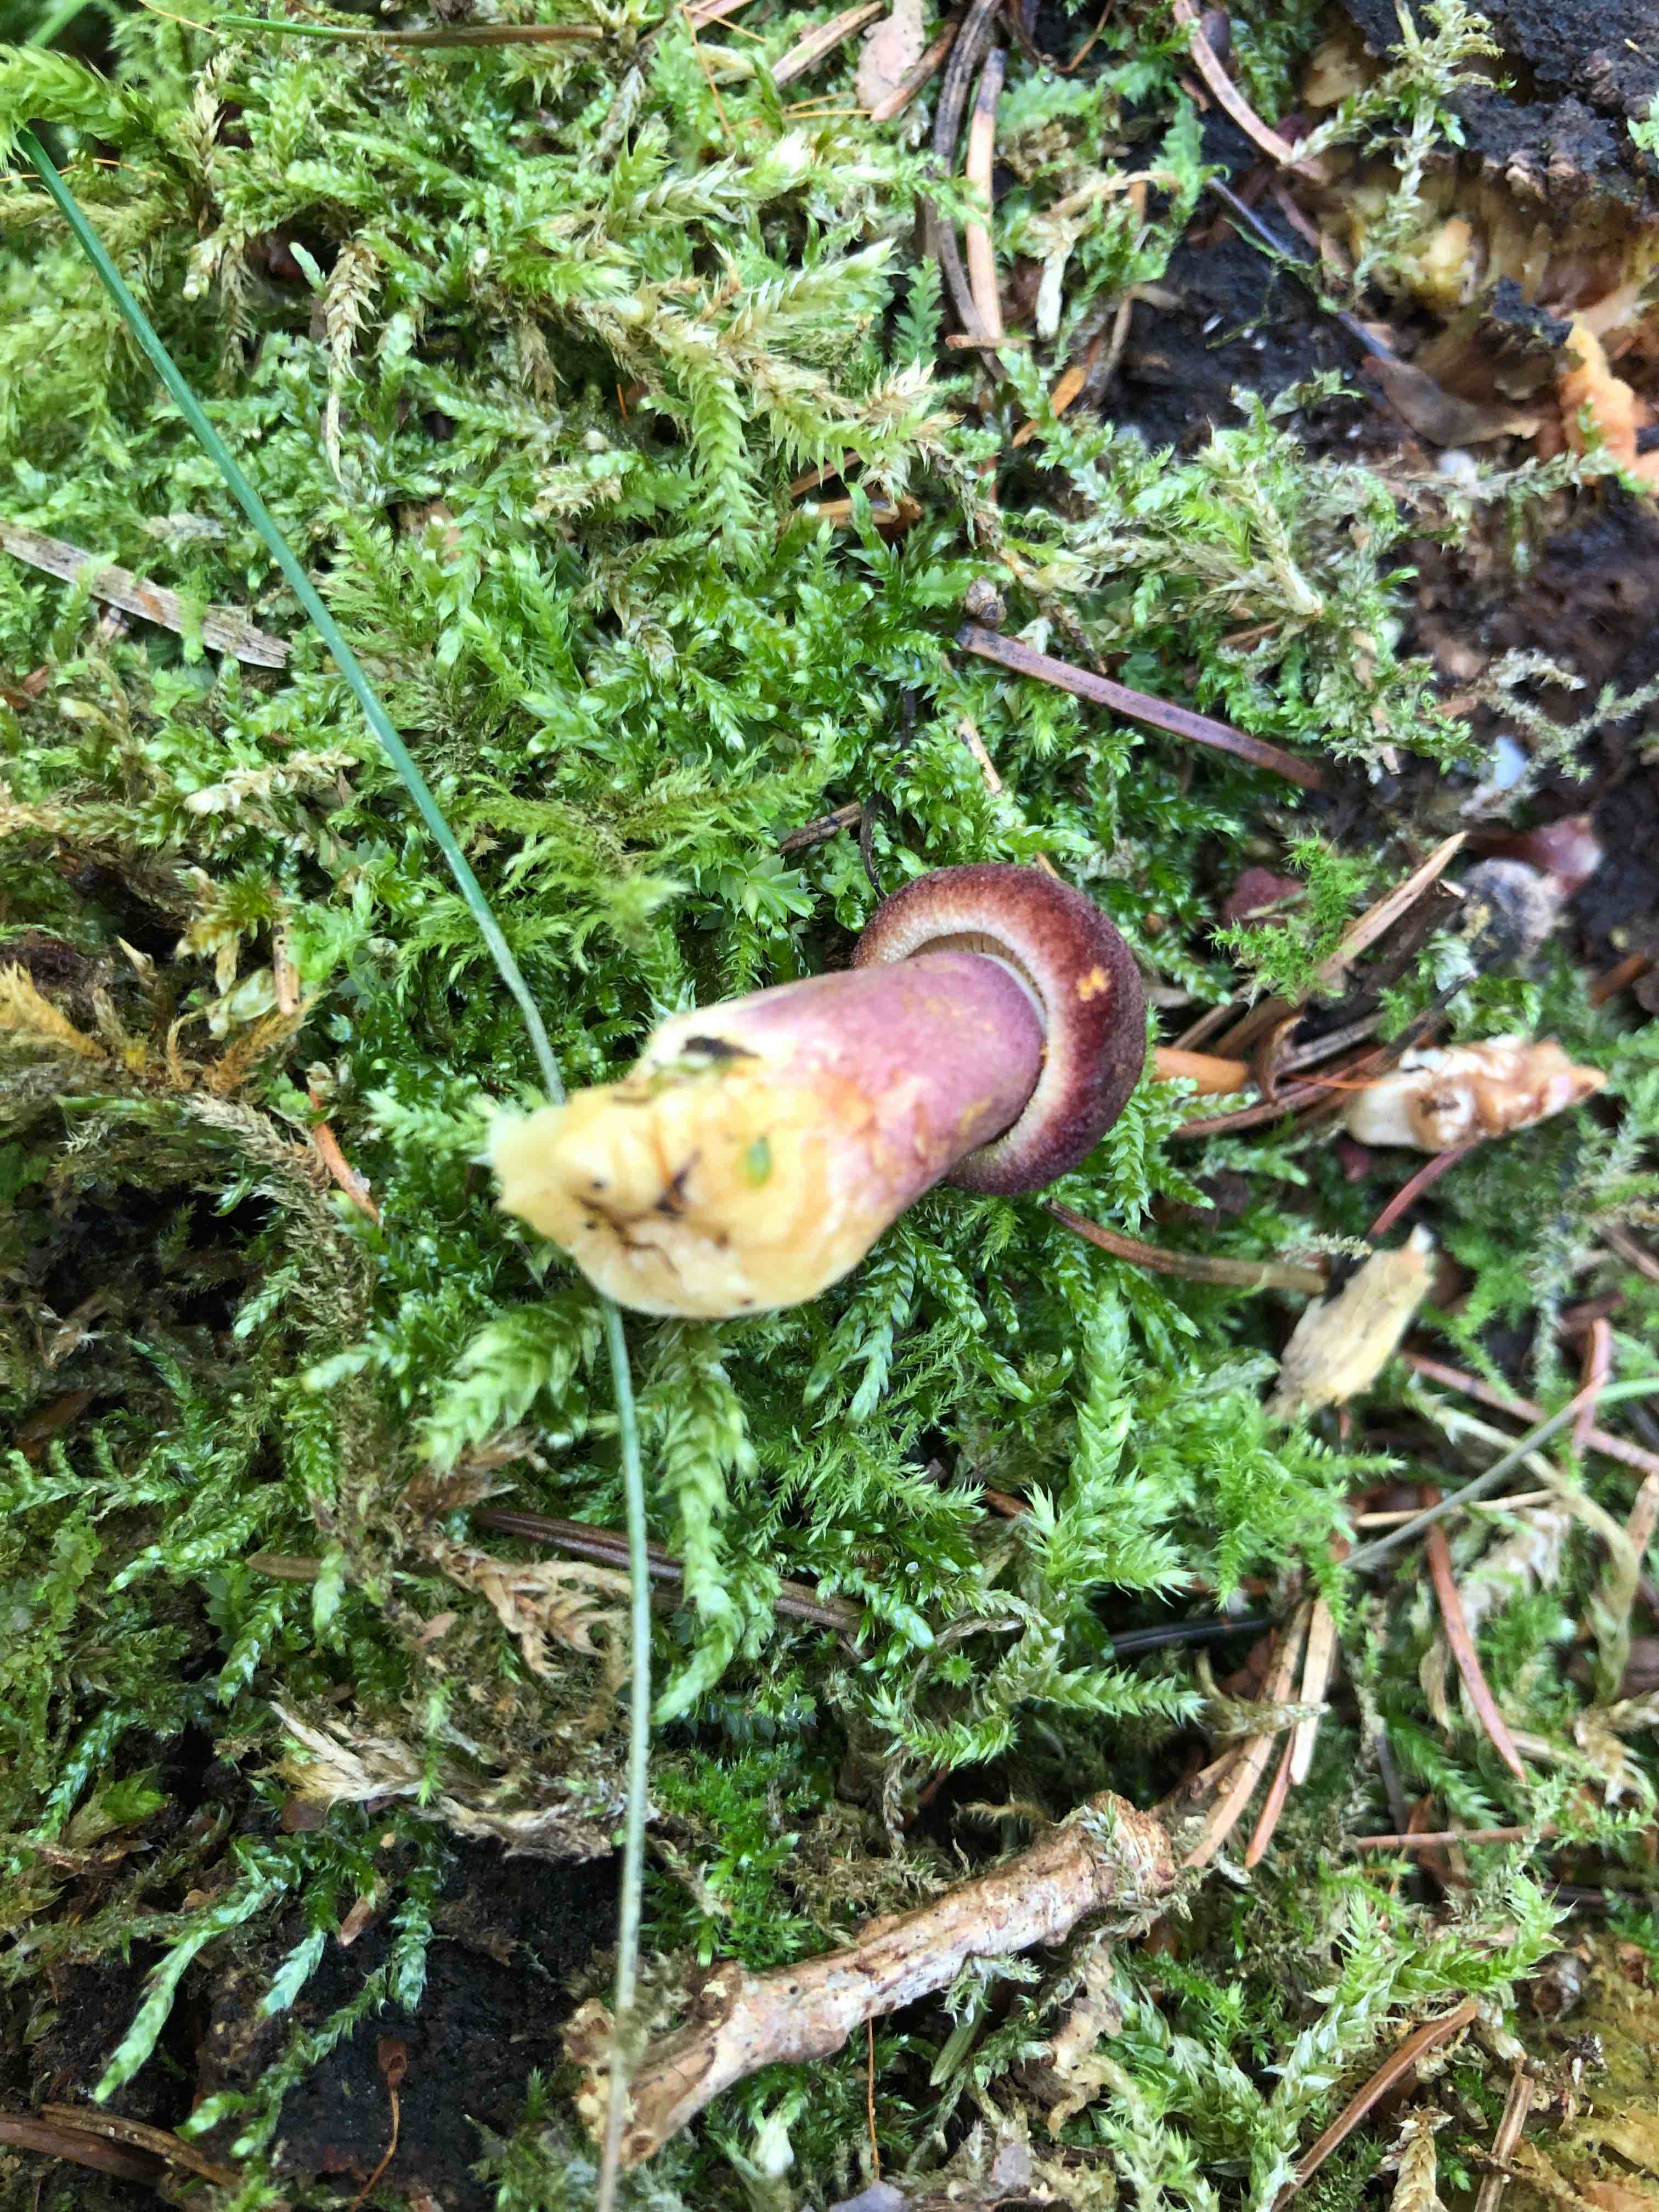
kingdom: Fungi
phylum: Basidiomycota
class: Agaricomycetes
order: Agaricales
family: Tricholomataceae
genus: Tricholomopsis
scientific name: Tricholomopsis rutilans
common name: purpur-væbnerhat
